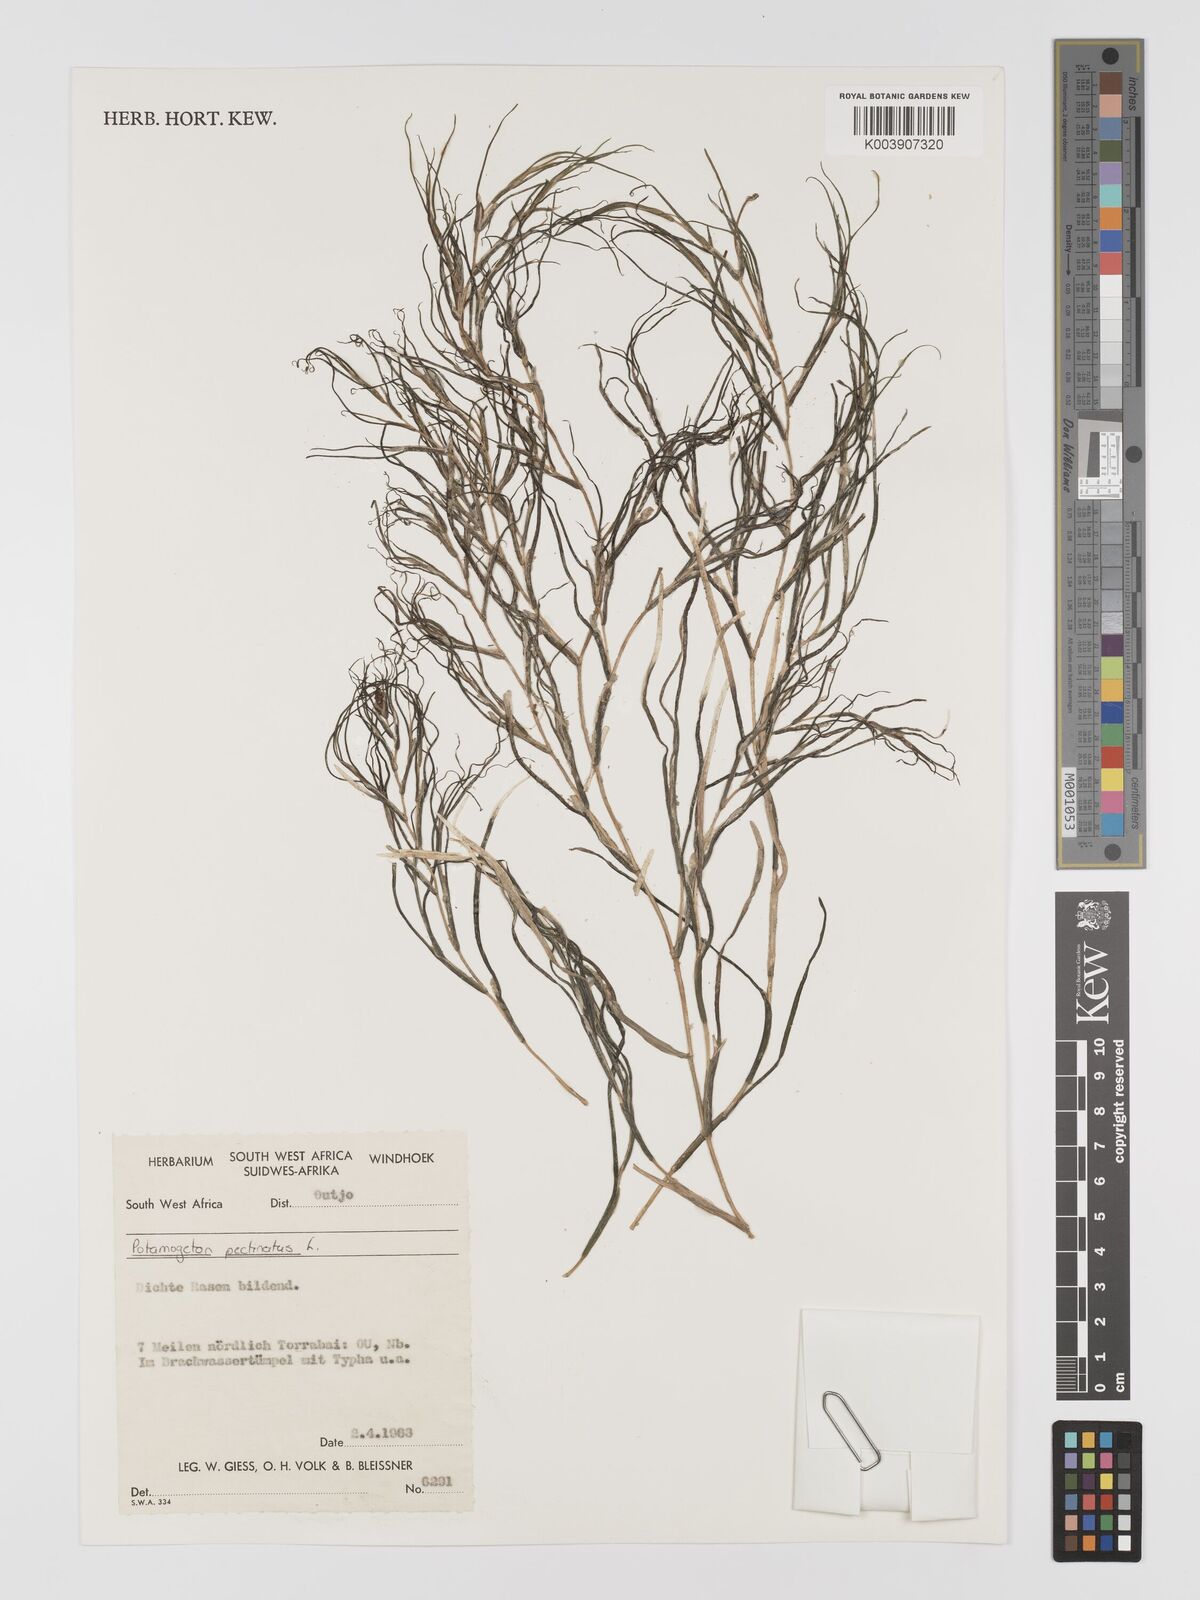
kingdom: Plantae
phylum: Tracheophyta
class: Liliopsida
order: Alismatales
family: Potamogetonaceae
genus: Stuckenia
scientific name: Stuckenia pectinata
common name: Sago pondweed
